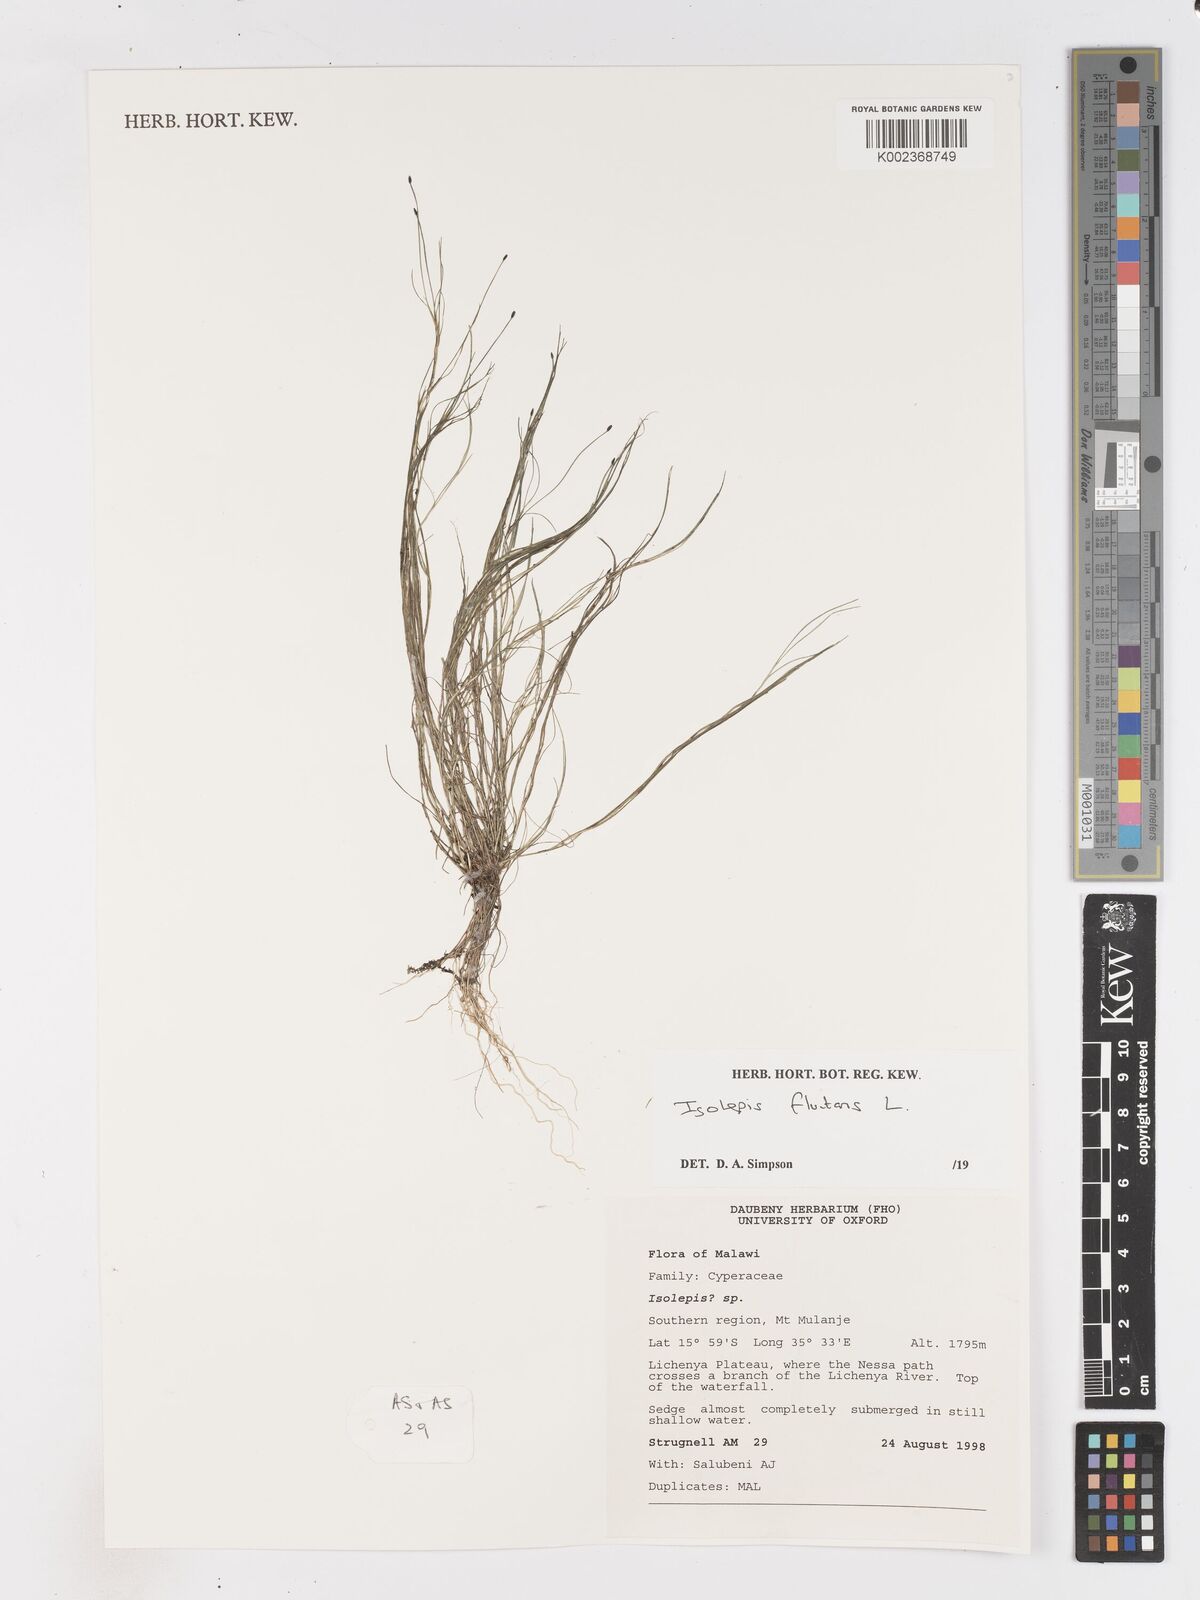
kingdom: Plantae
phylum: Tracheophyta
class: Liliopsida
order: Poales
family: Cyperaceae
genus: Isolepis
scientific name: Isolepis fluitans
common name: Floating club-rush
